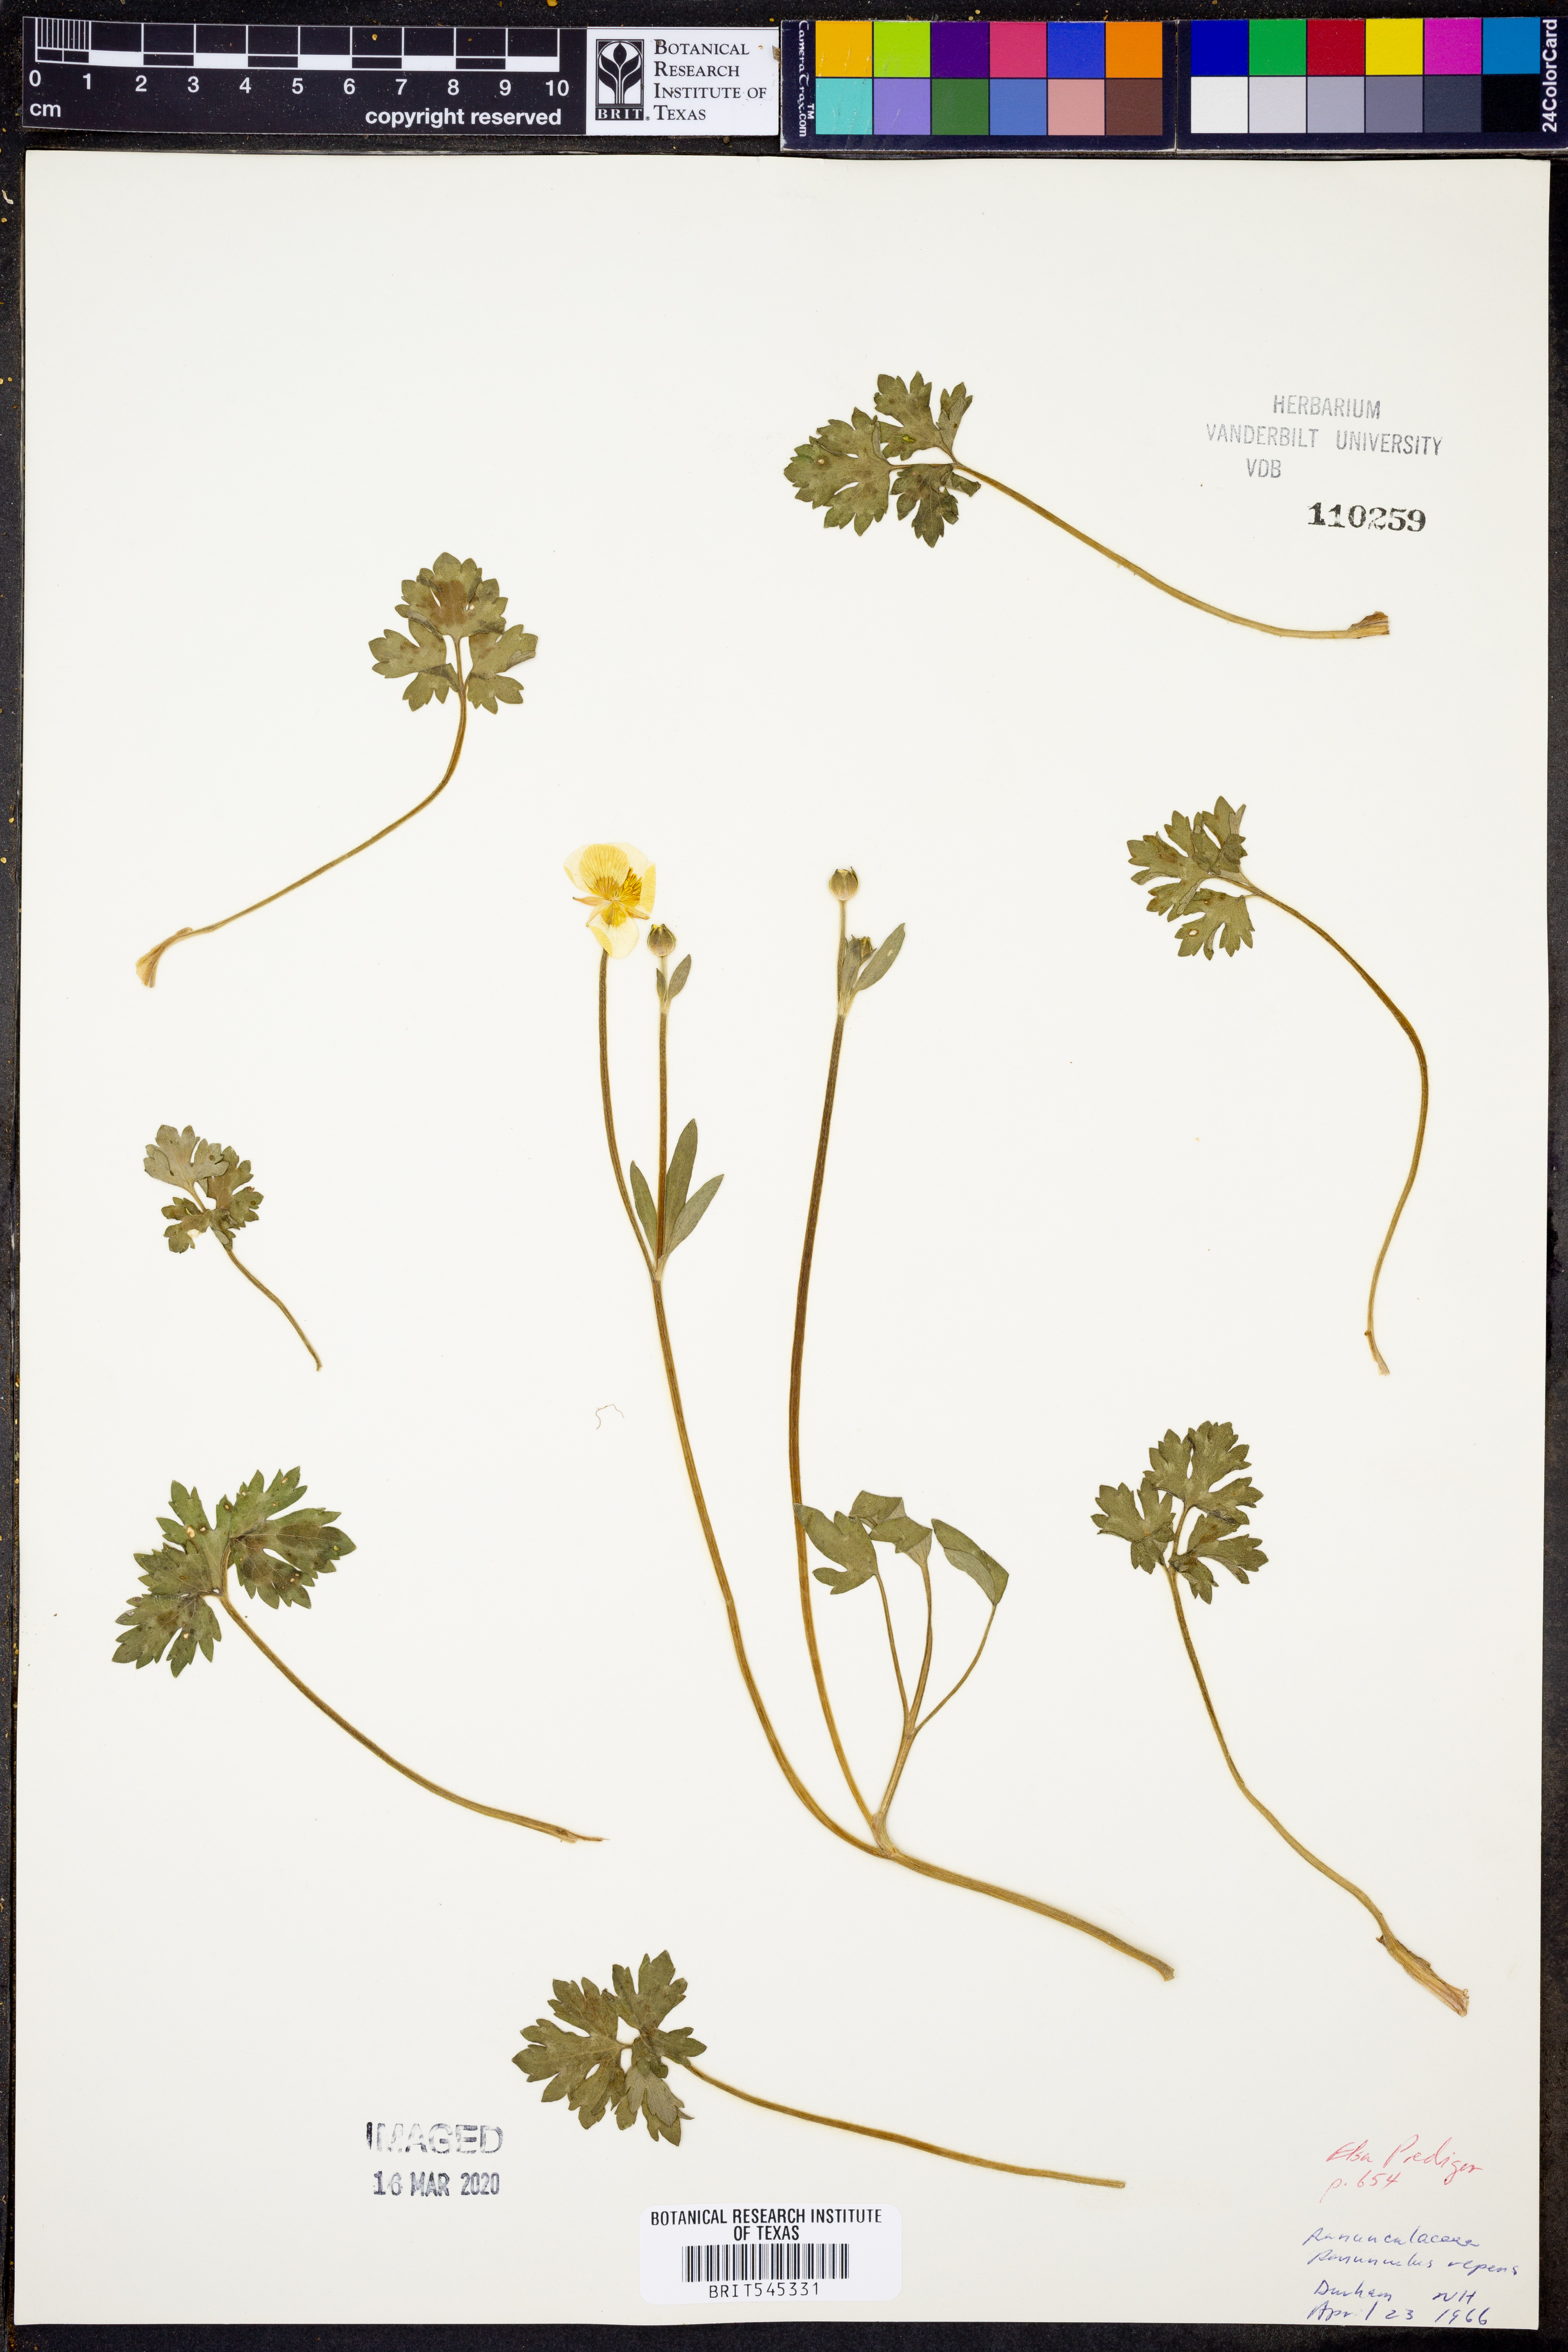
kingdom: Plantae
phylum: Tracheophyta
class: Magnoliopsida
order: Ranunculales
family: Ranunculaceae
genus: Ranunculus
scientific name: Ranunculus repens
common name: Creeping buttercup
